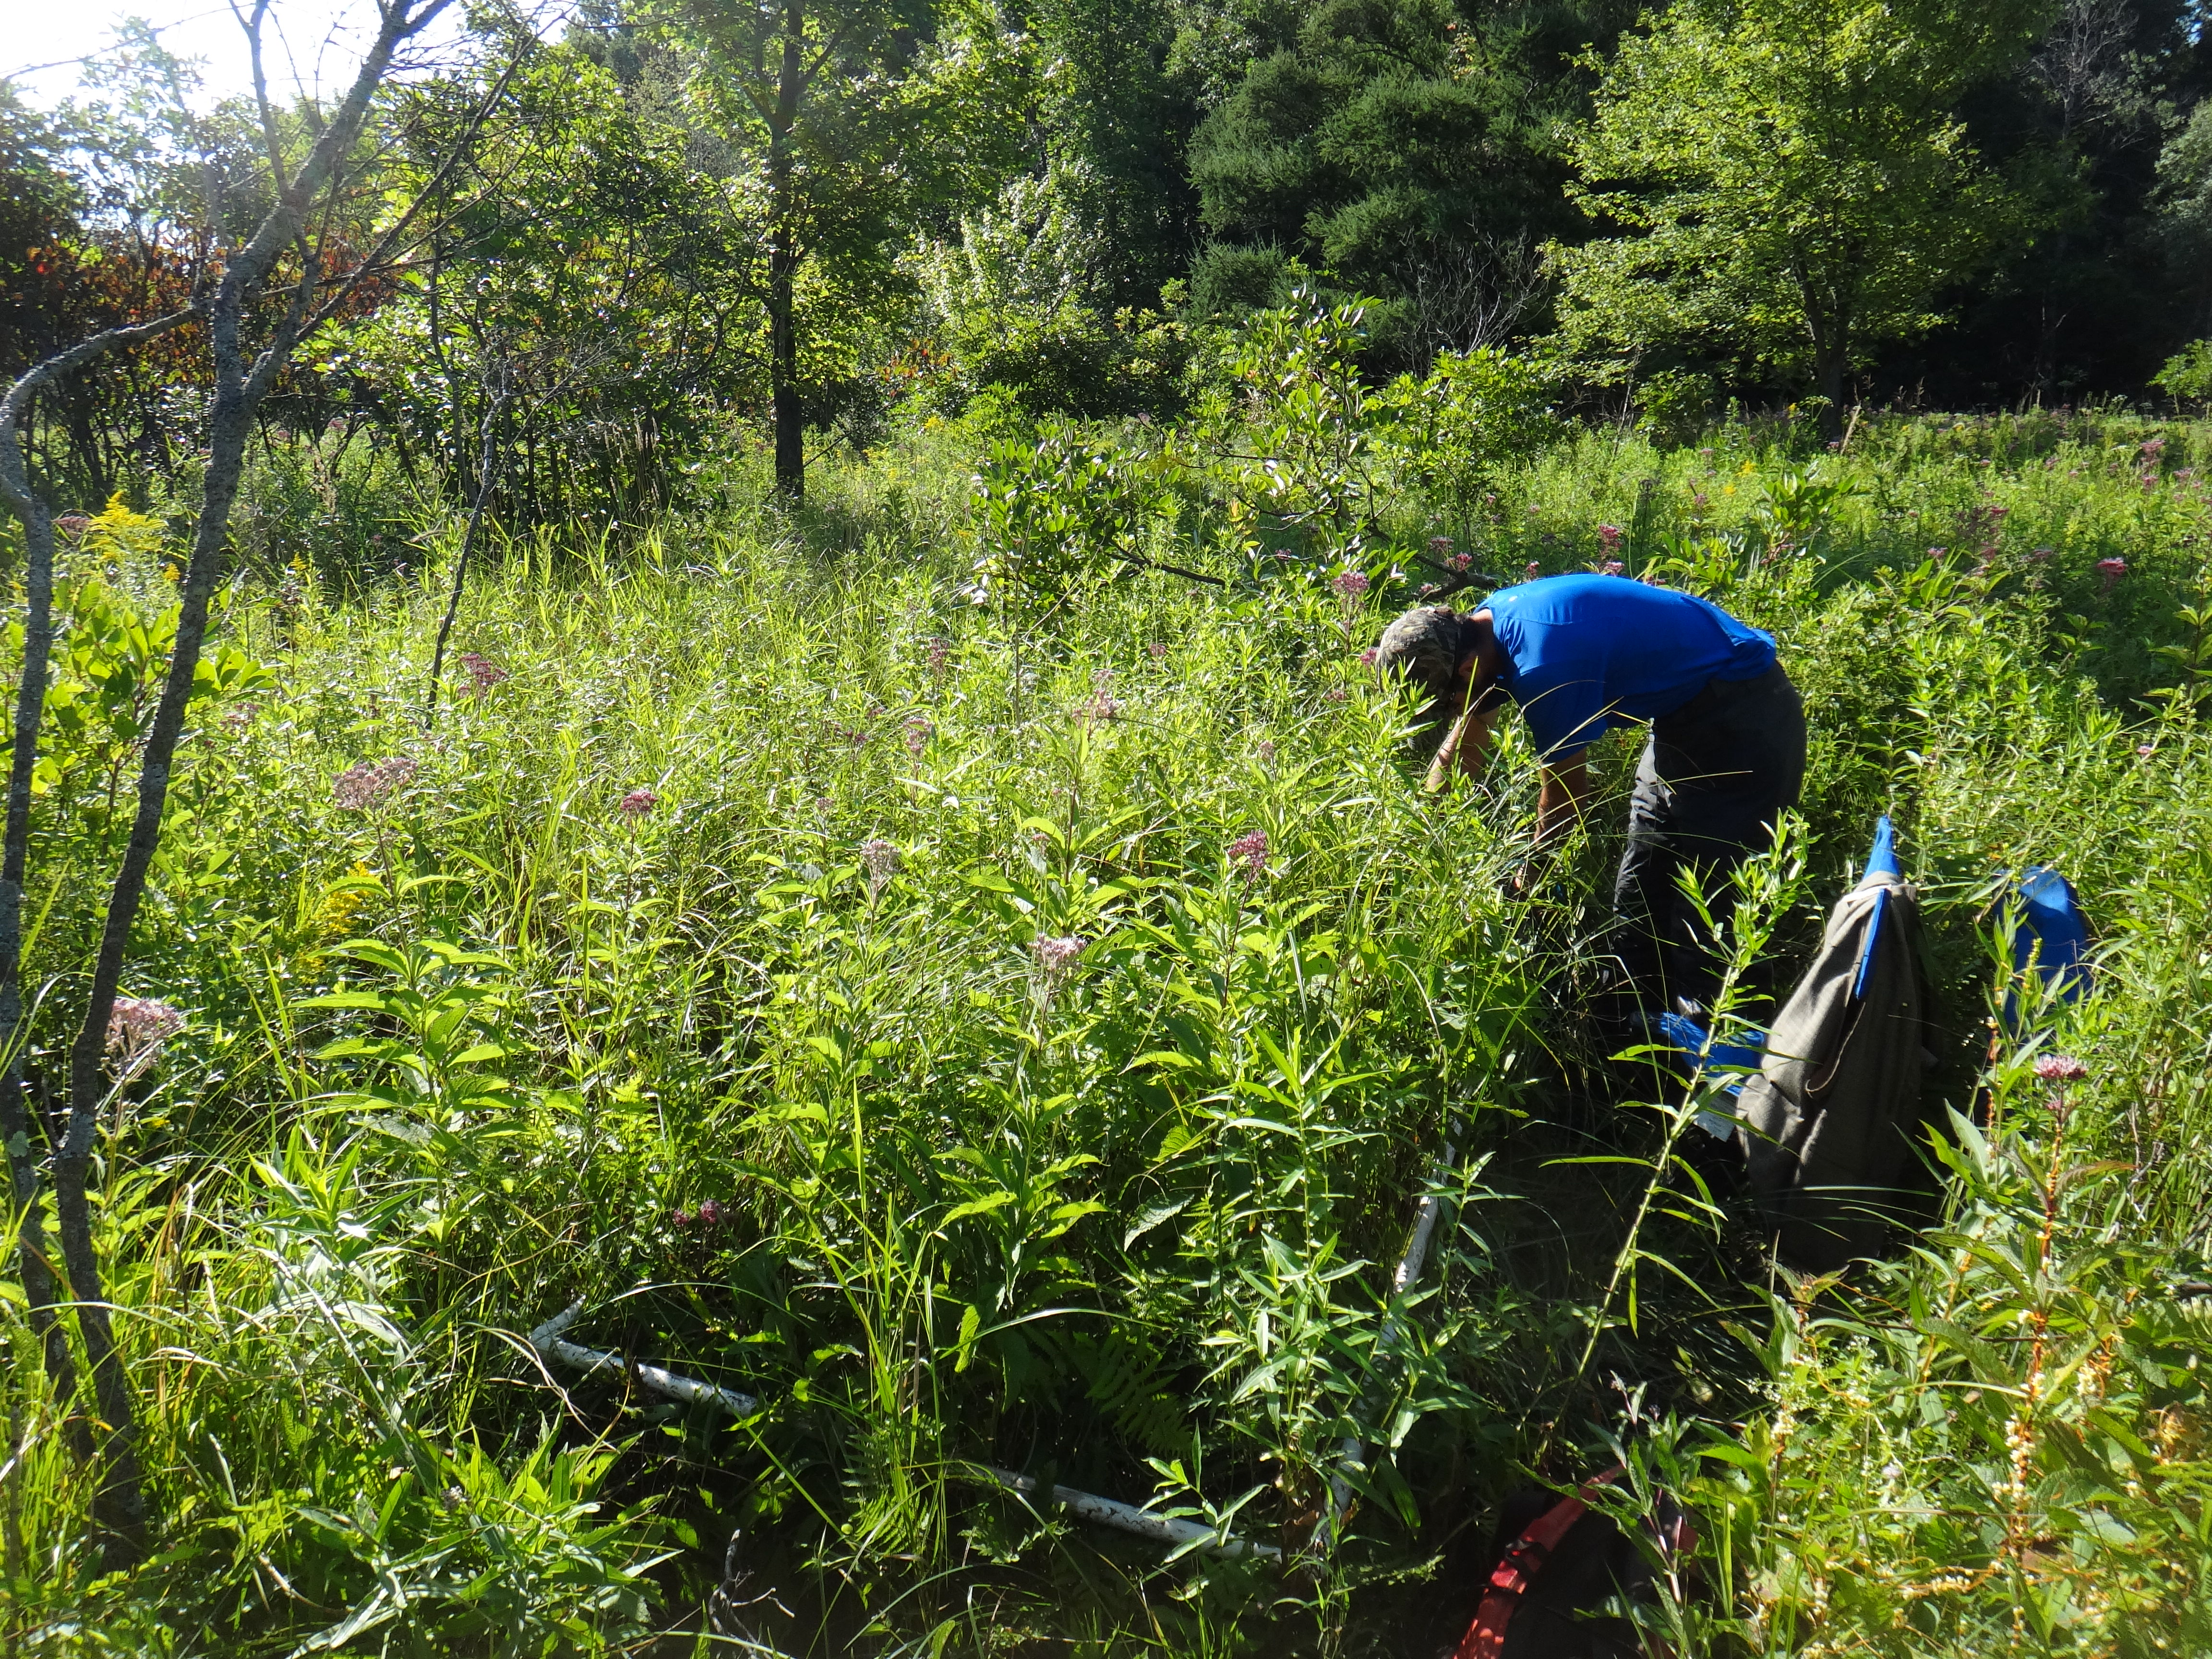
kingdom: Plantae
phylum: Tracheophyta
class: Magnoliopsida
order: Lamiales
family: Lamiaceae
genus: Lycopus
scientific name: Lycopus americanus
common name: American bugleweed
